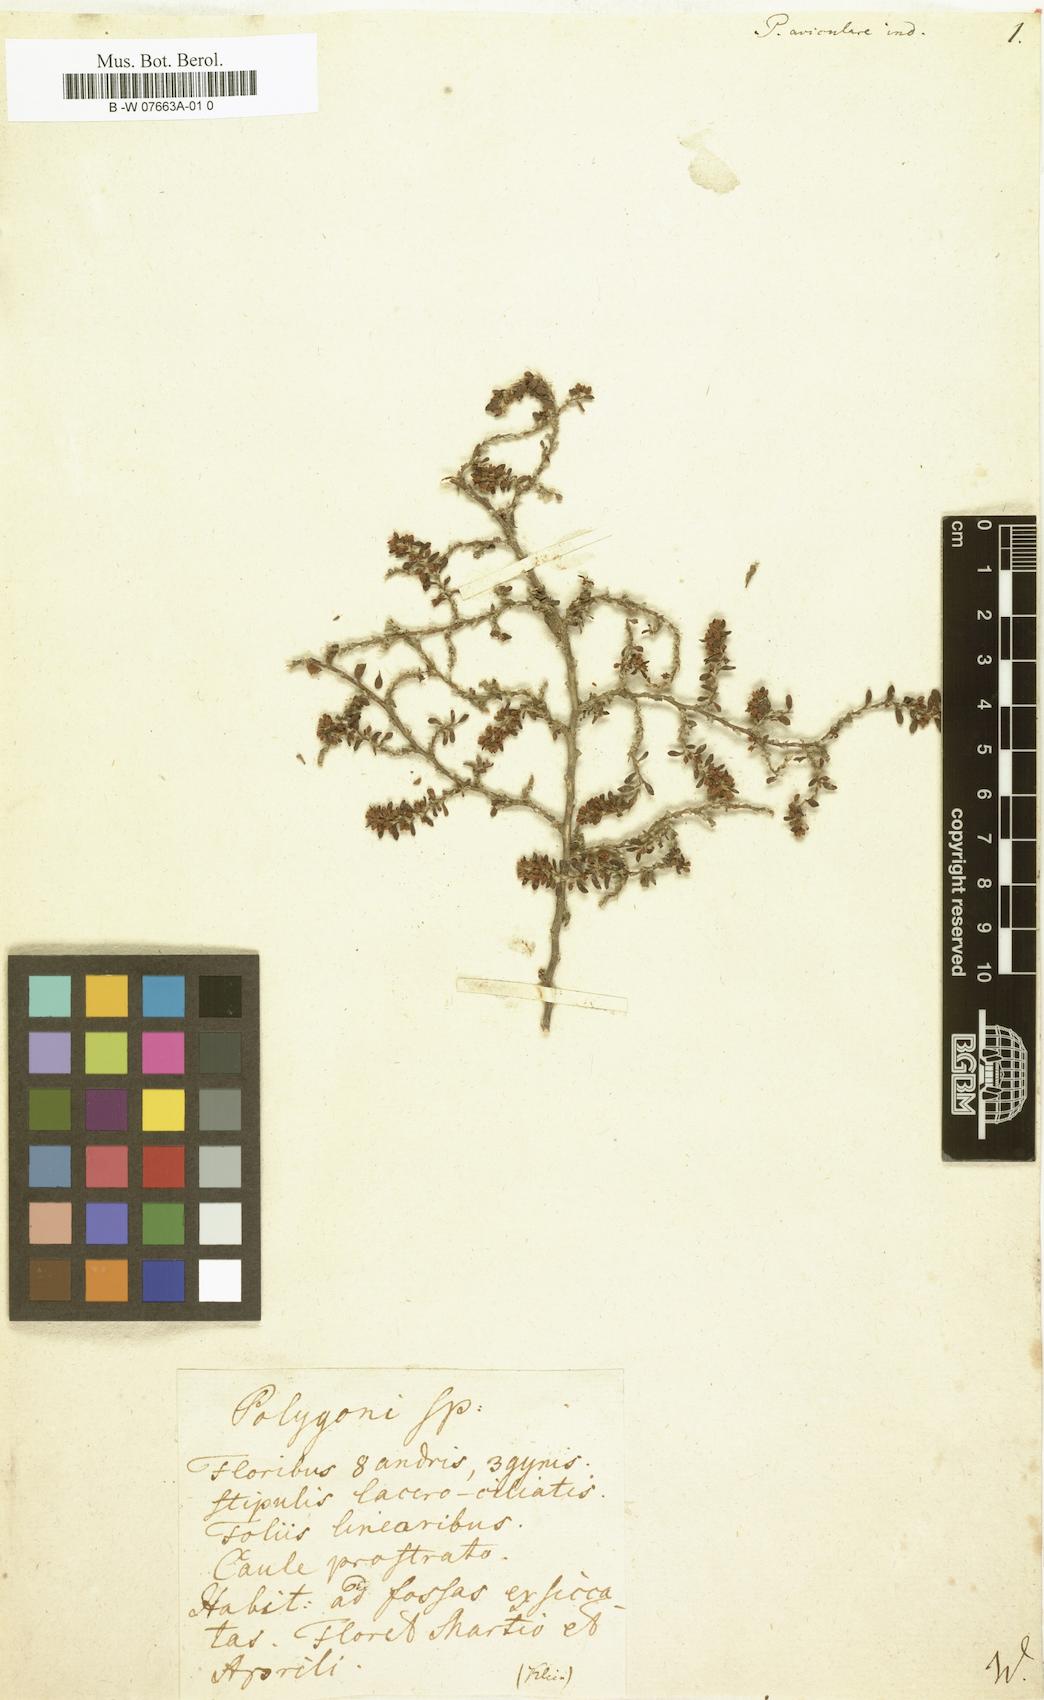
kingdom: Plantae
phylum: Tracheophyta
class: Magnoliopsida
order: Caryophyllales
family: Polygonaceae
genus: Polygonum
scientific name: Polygonum
